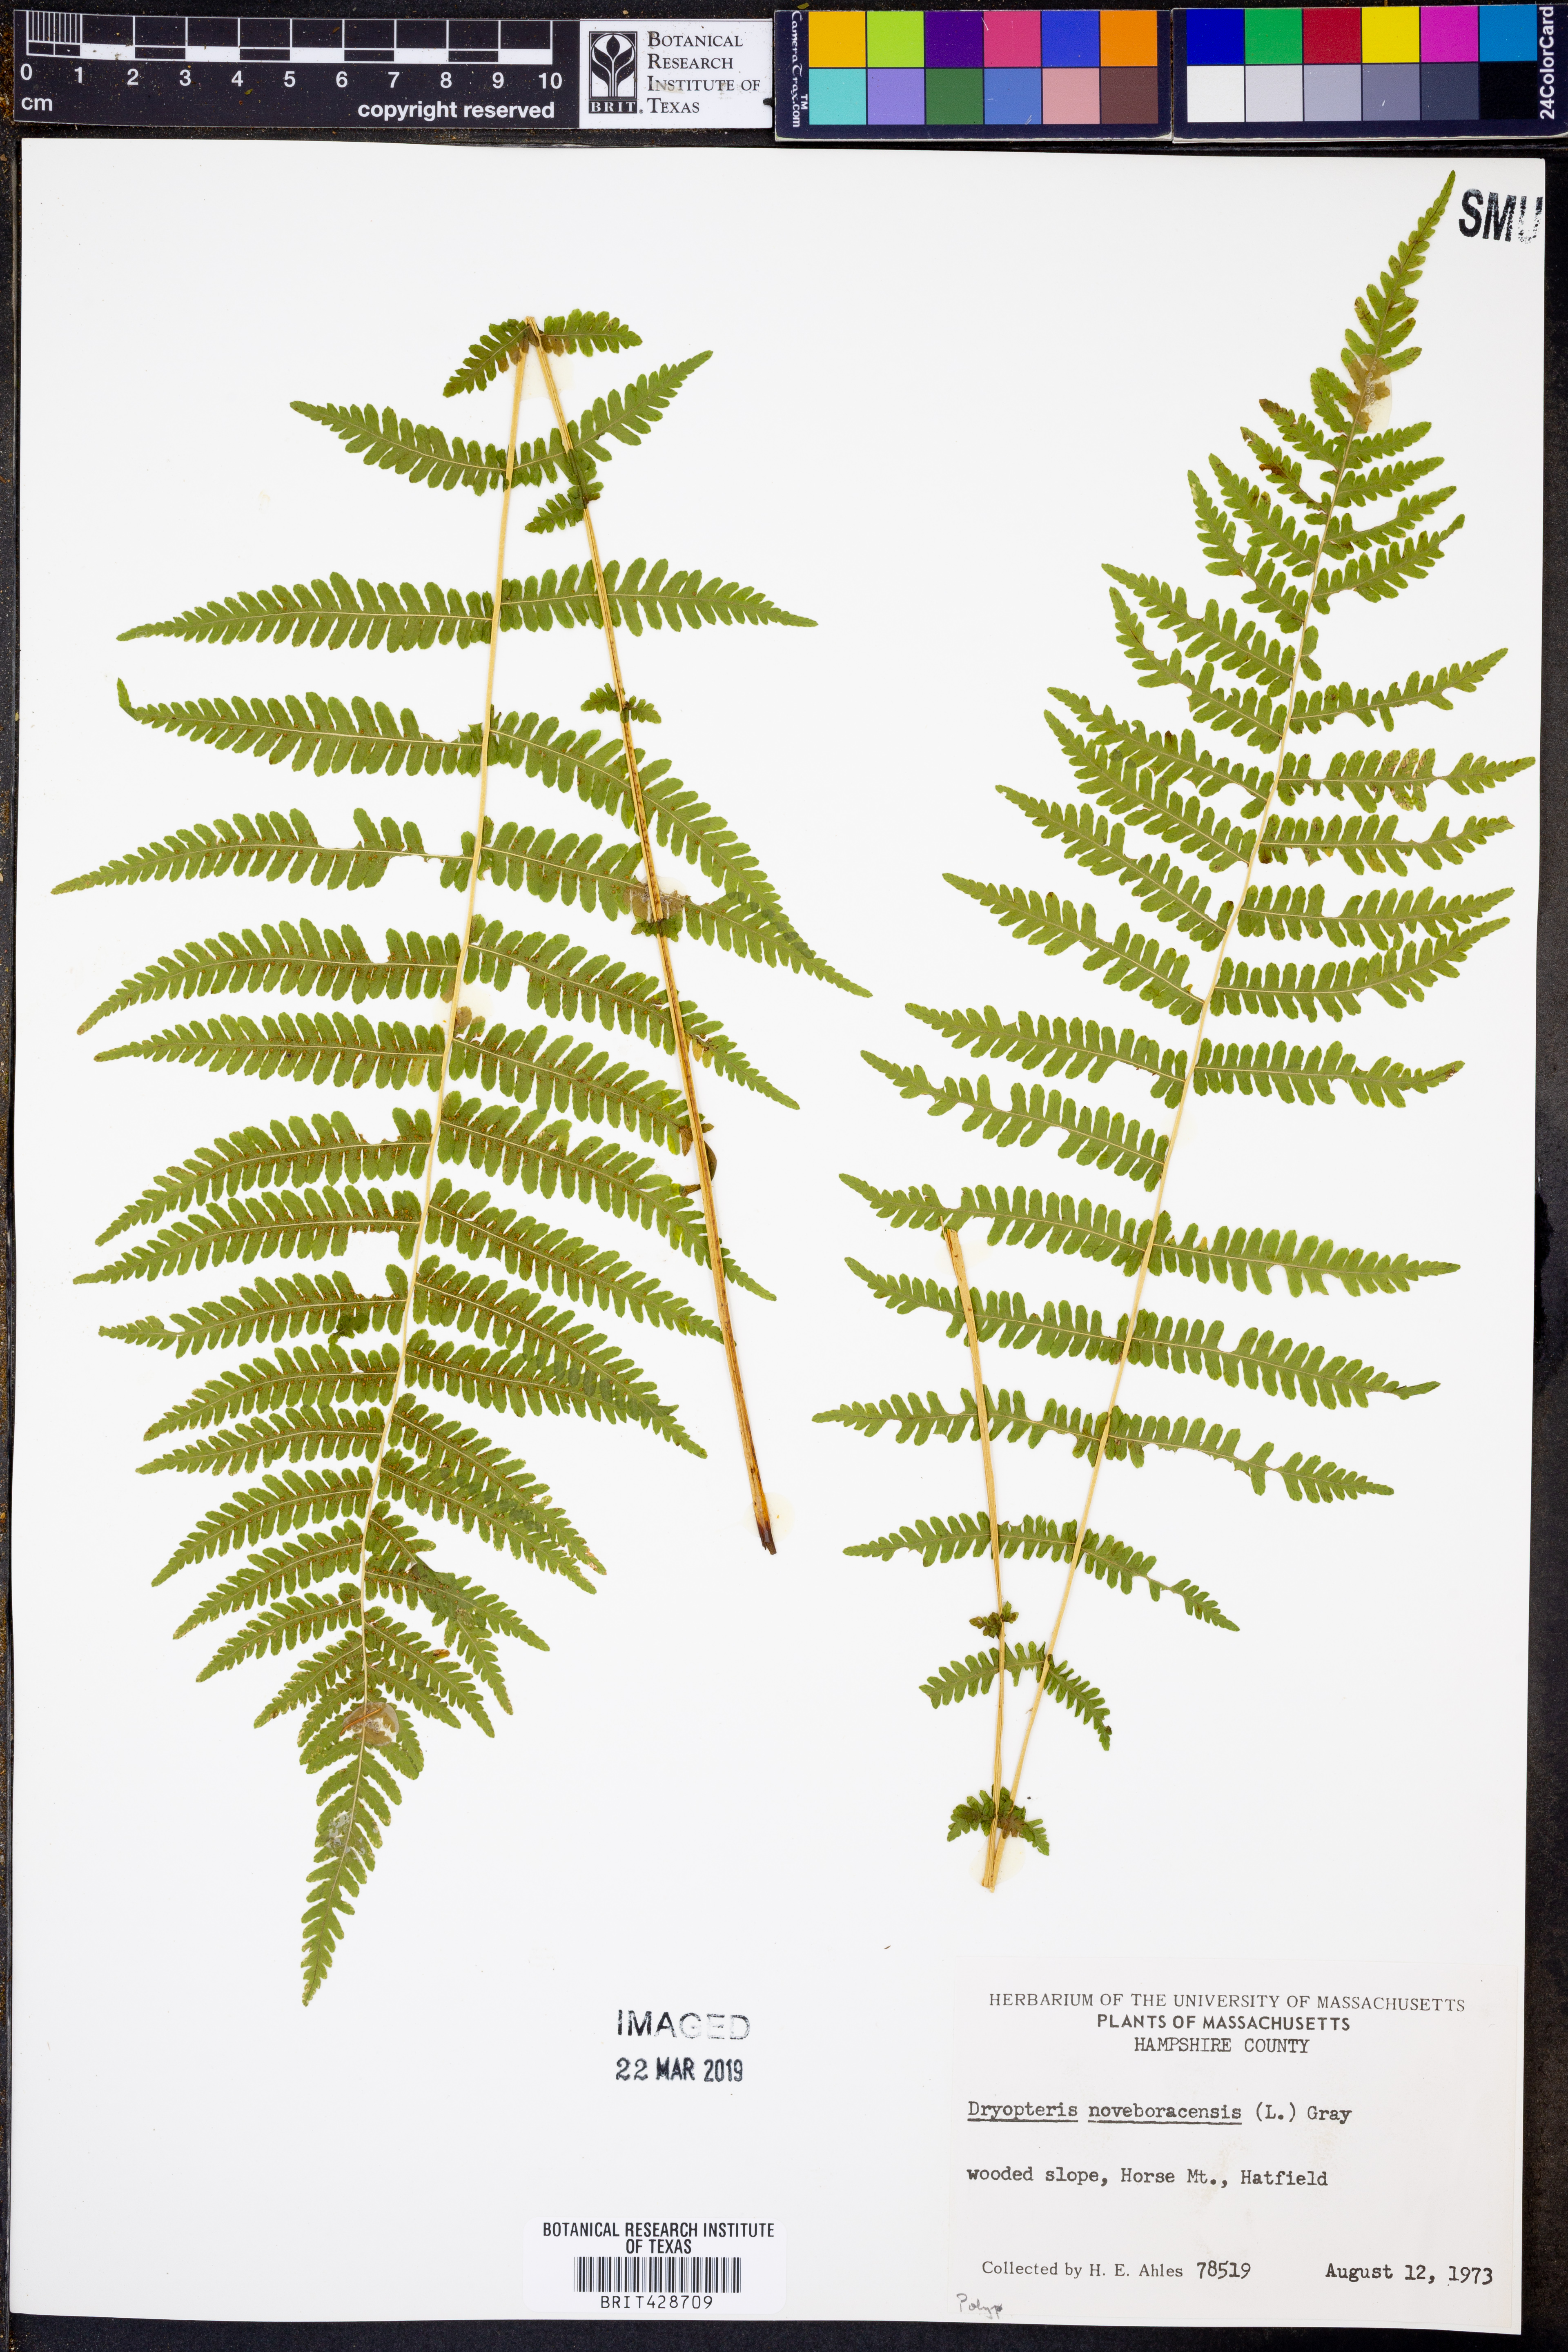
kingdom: Plantae
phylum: Tracheophyta
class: Polypodiopsida
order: Polypodiales
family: Thelypteridaceae
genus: Amauropelta
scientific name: Amauropelta noveboracensis
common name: New york fern
